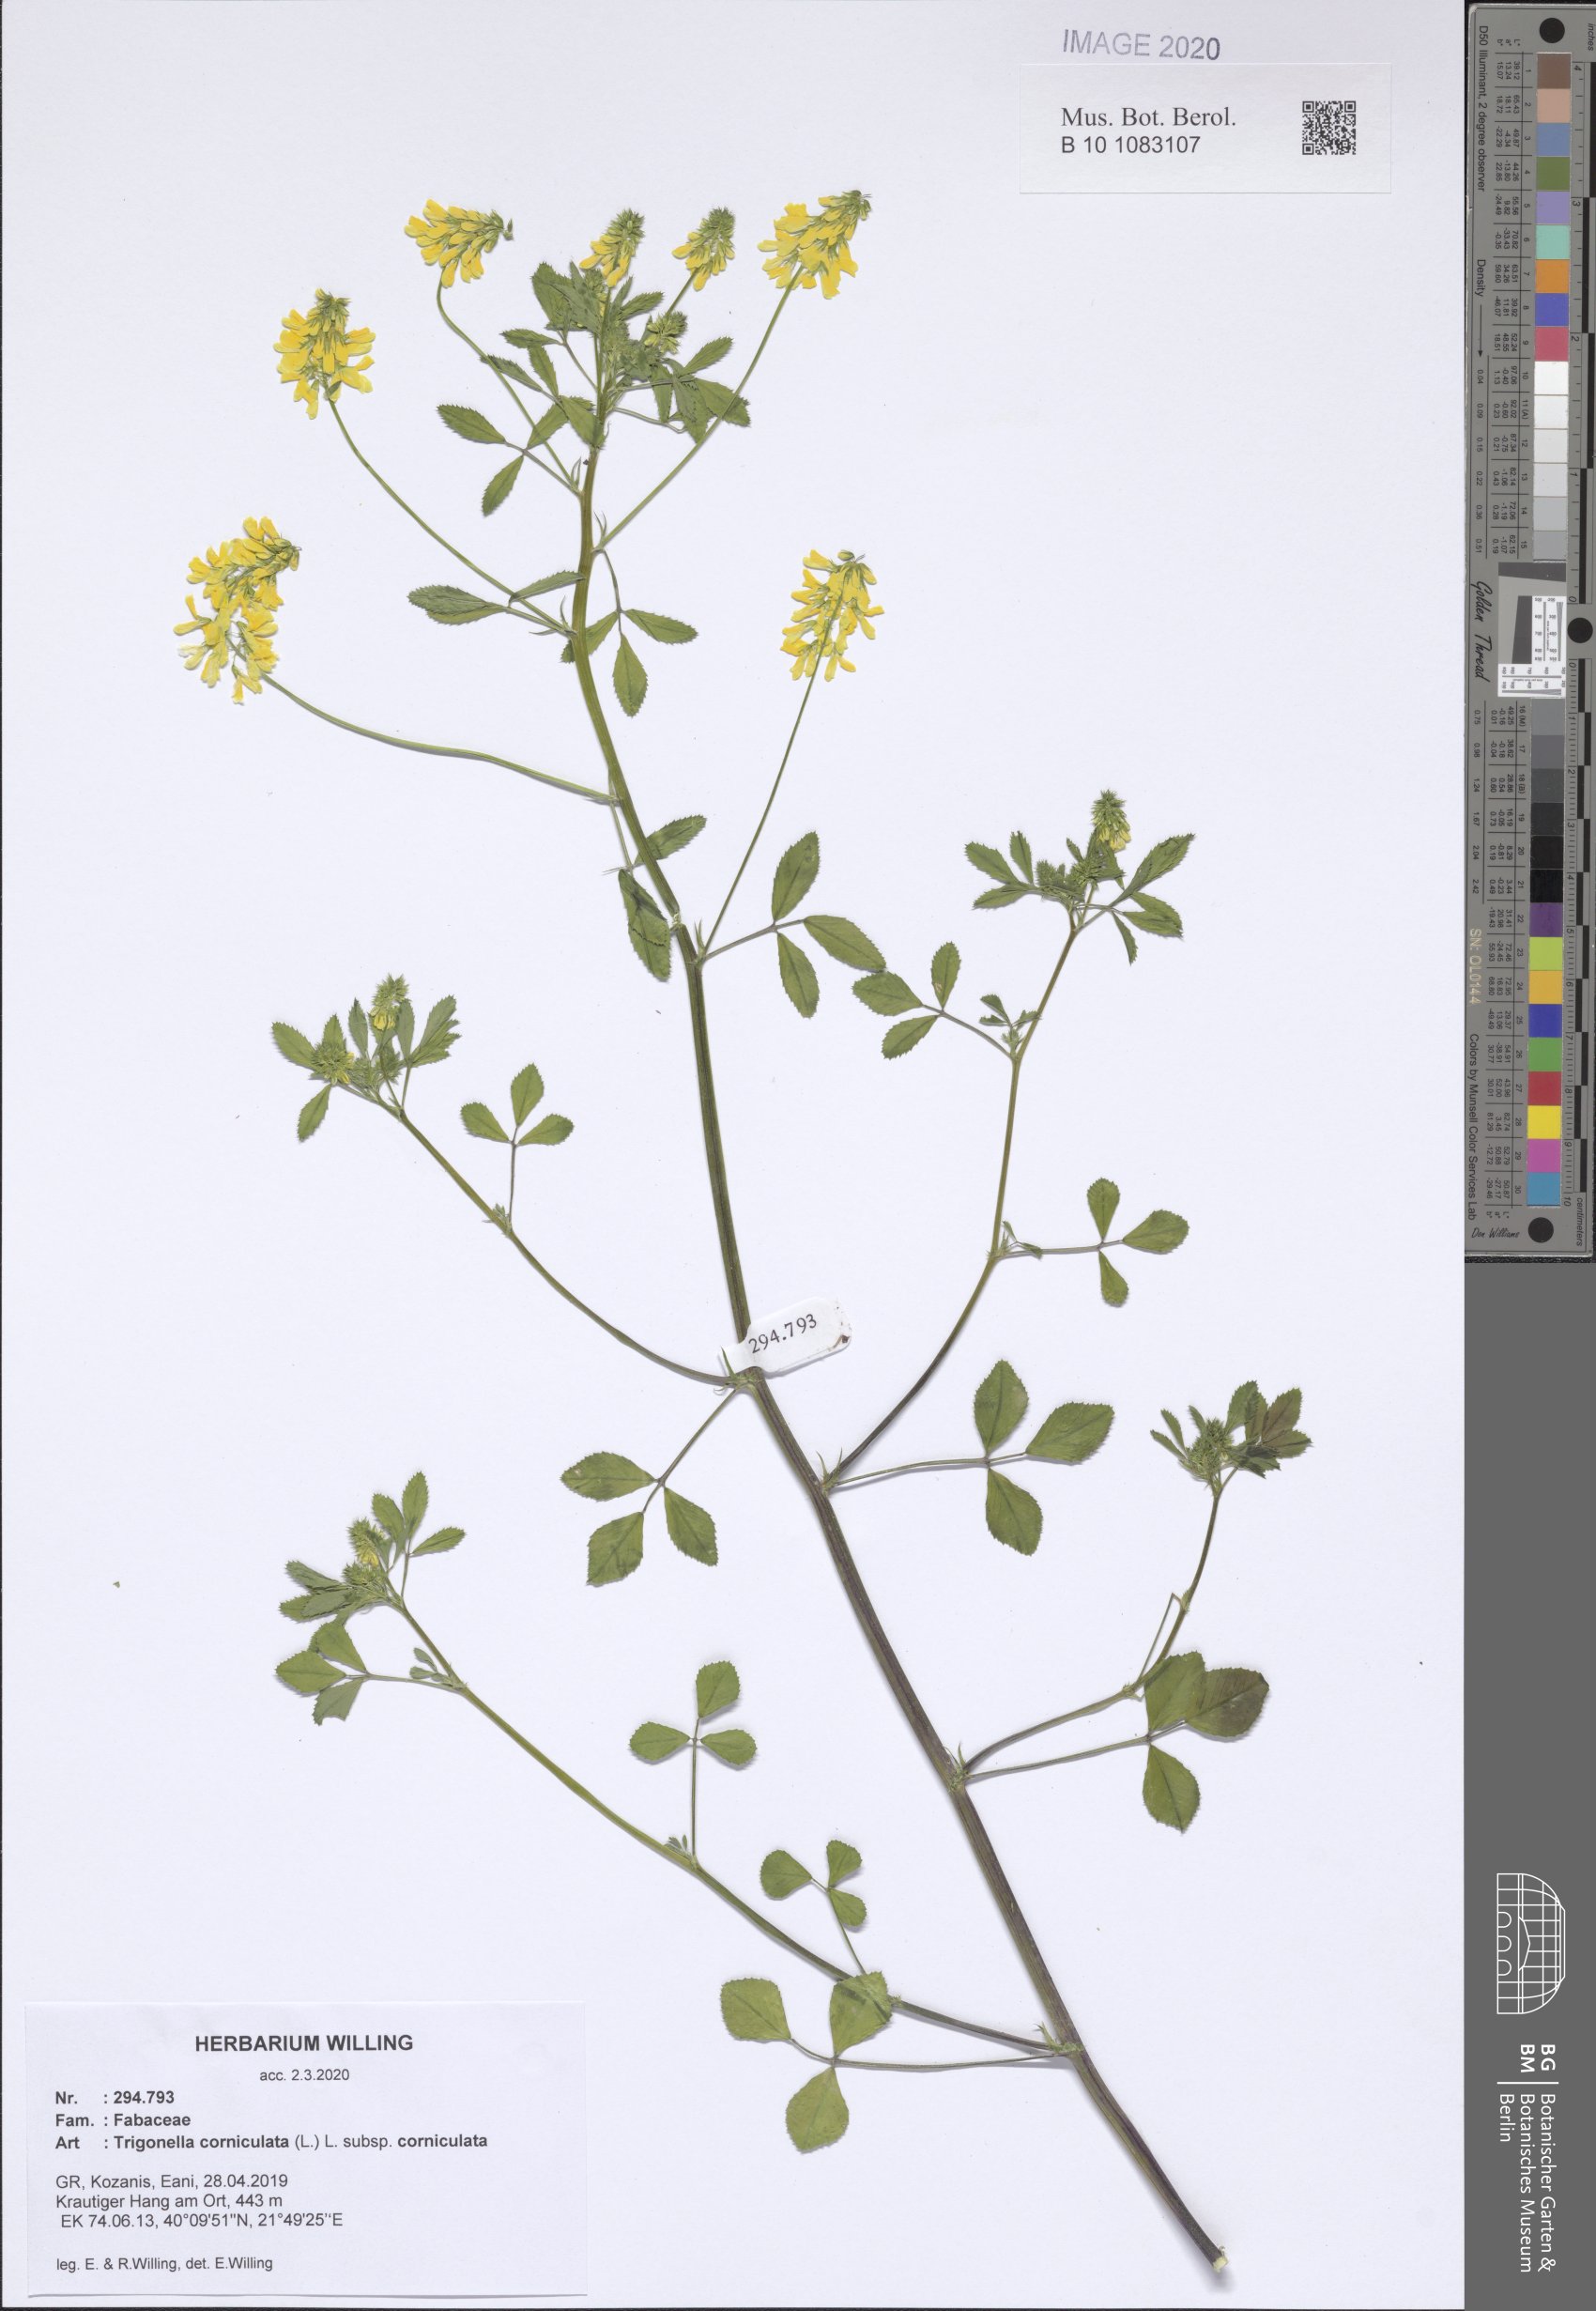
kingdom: Plantae
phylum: Tracheophyta
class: Magnoliopsida
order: Fabales
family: Fabaceae
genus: Trigonella
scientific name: Trigonella corniculata
